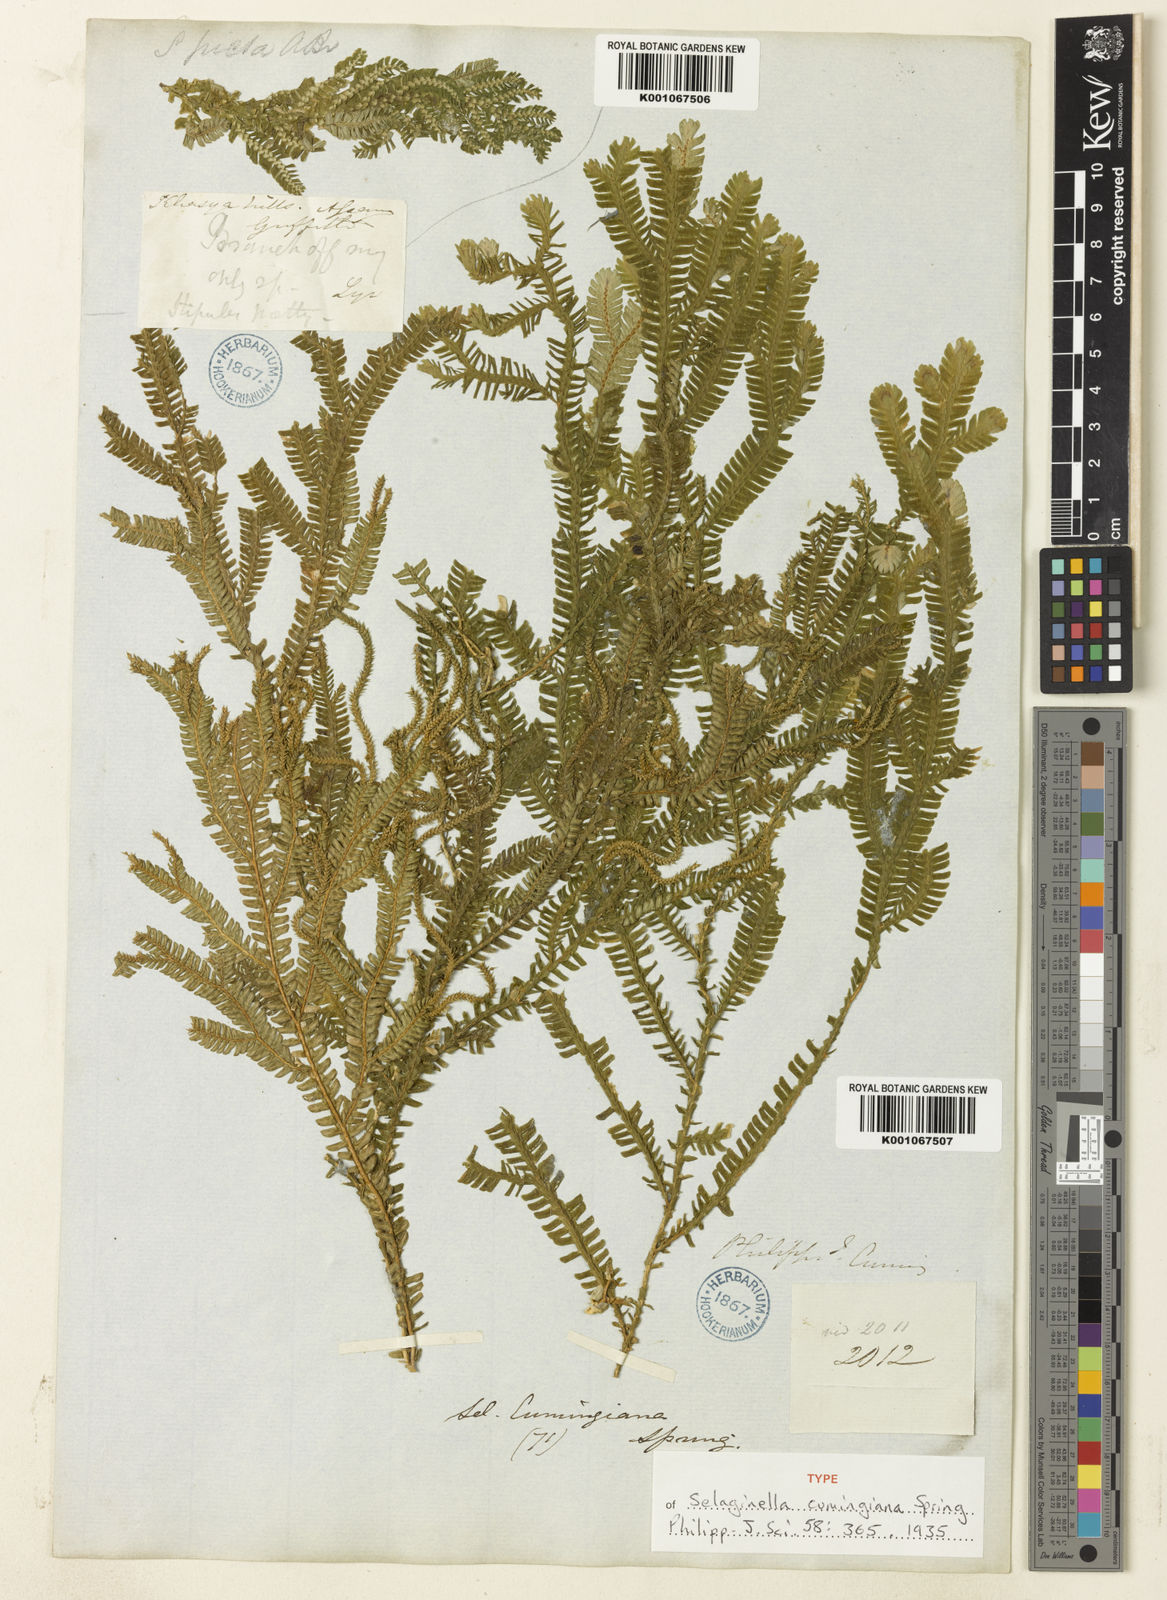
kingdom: Plantae
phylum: Tracheophyta
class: Lycopodiopsida
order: Selaginellales
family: Selaginellaceae
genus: Selaginella
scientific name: Selaginella cumingiana
